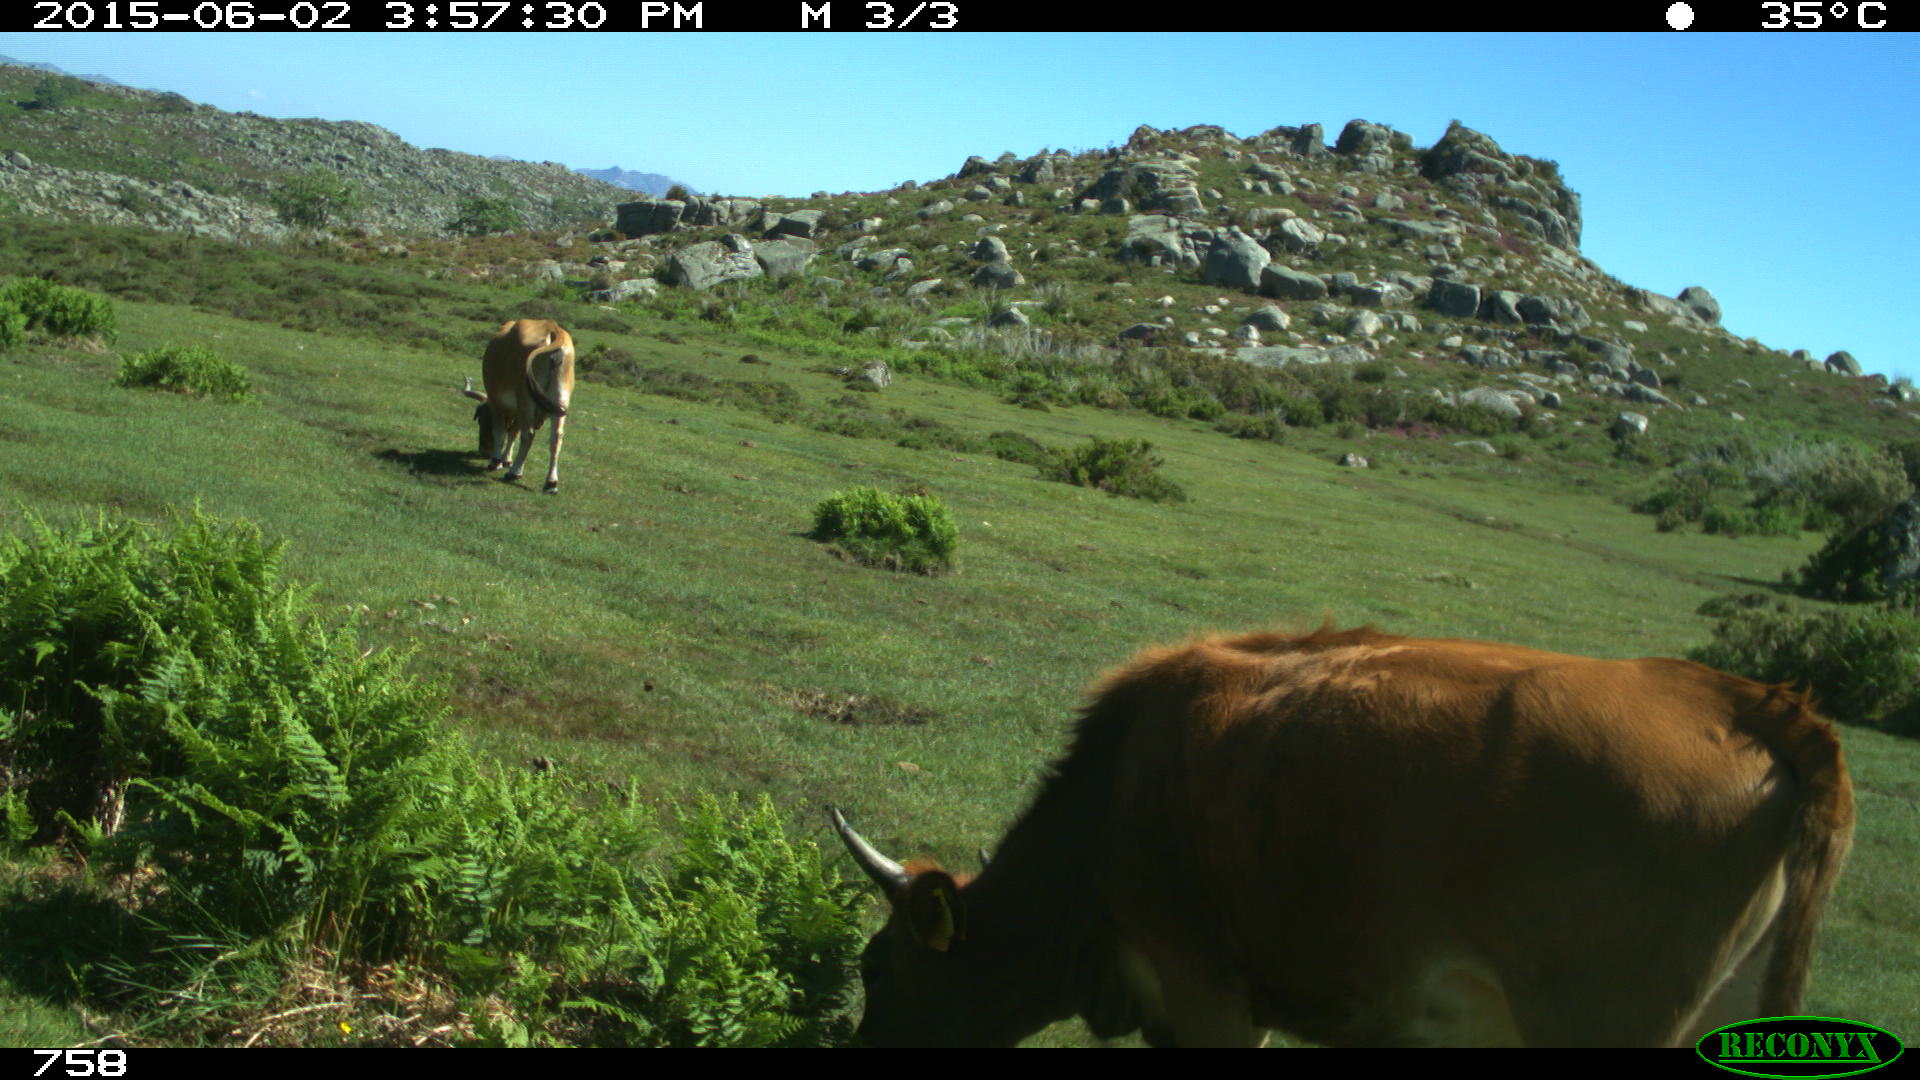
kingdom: Animalia
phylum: Chordata
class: Mammalia
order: Artiodactyla
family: Bovidae
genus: Bos
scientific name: Bos taurus
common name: Domesticated cattle
